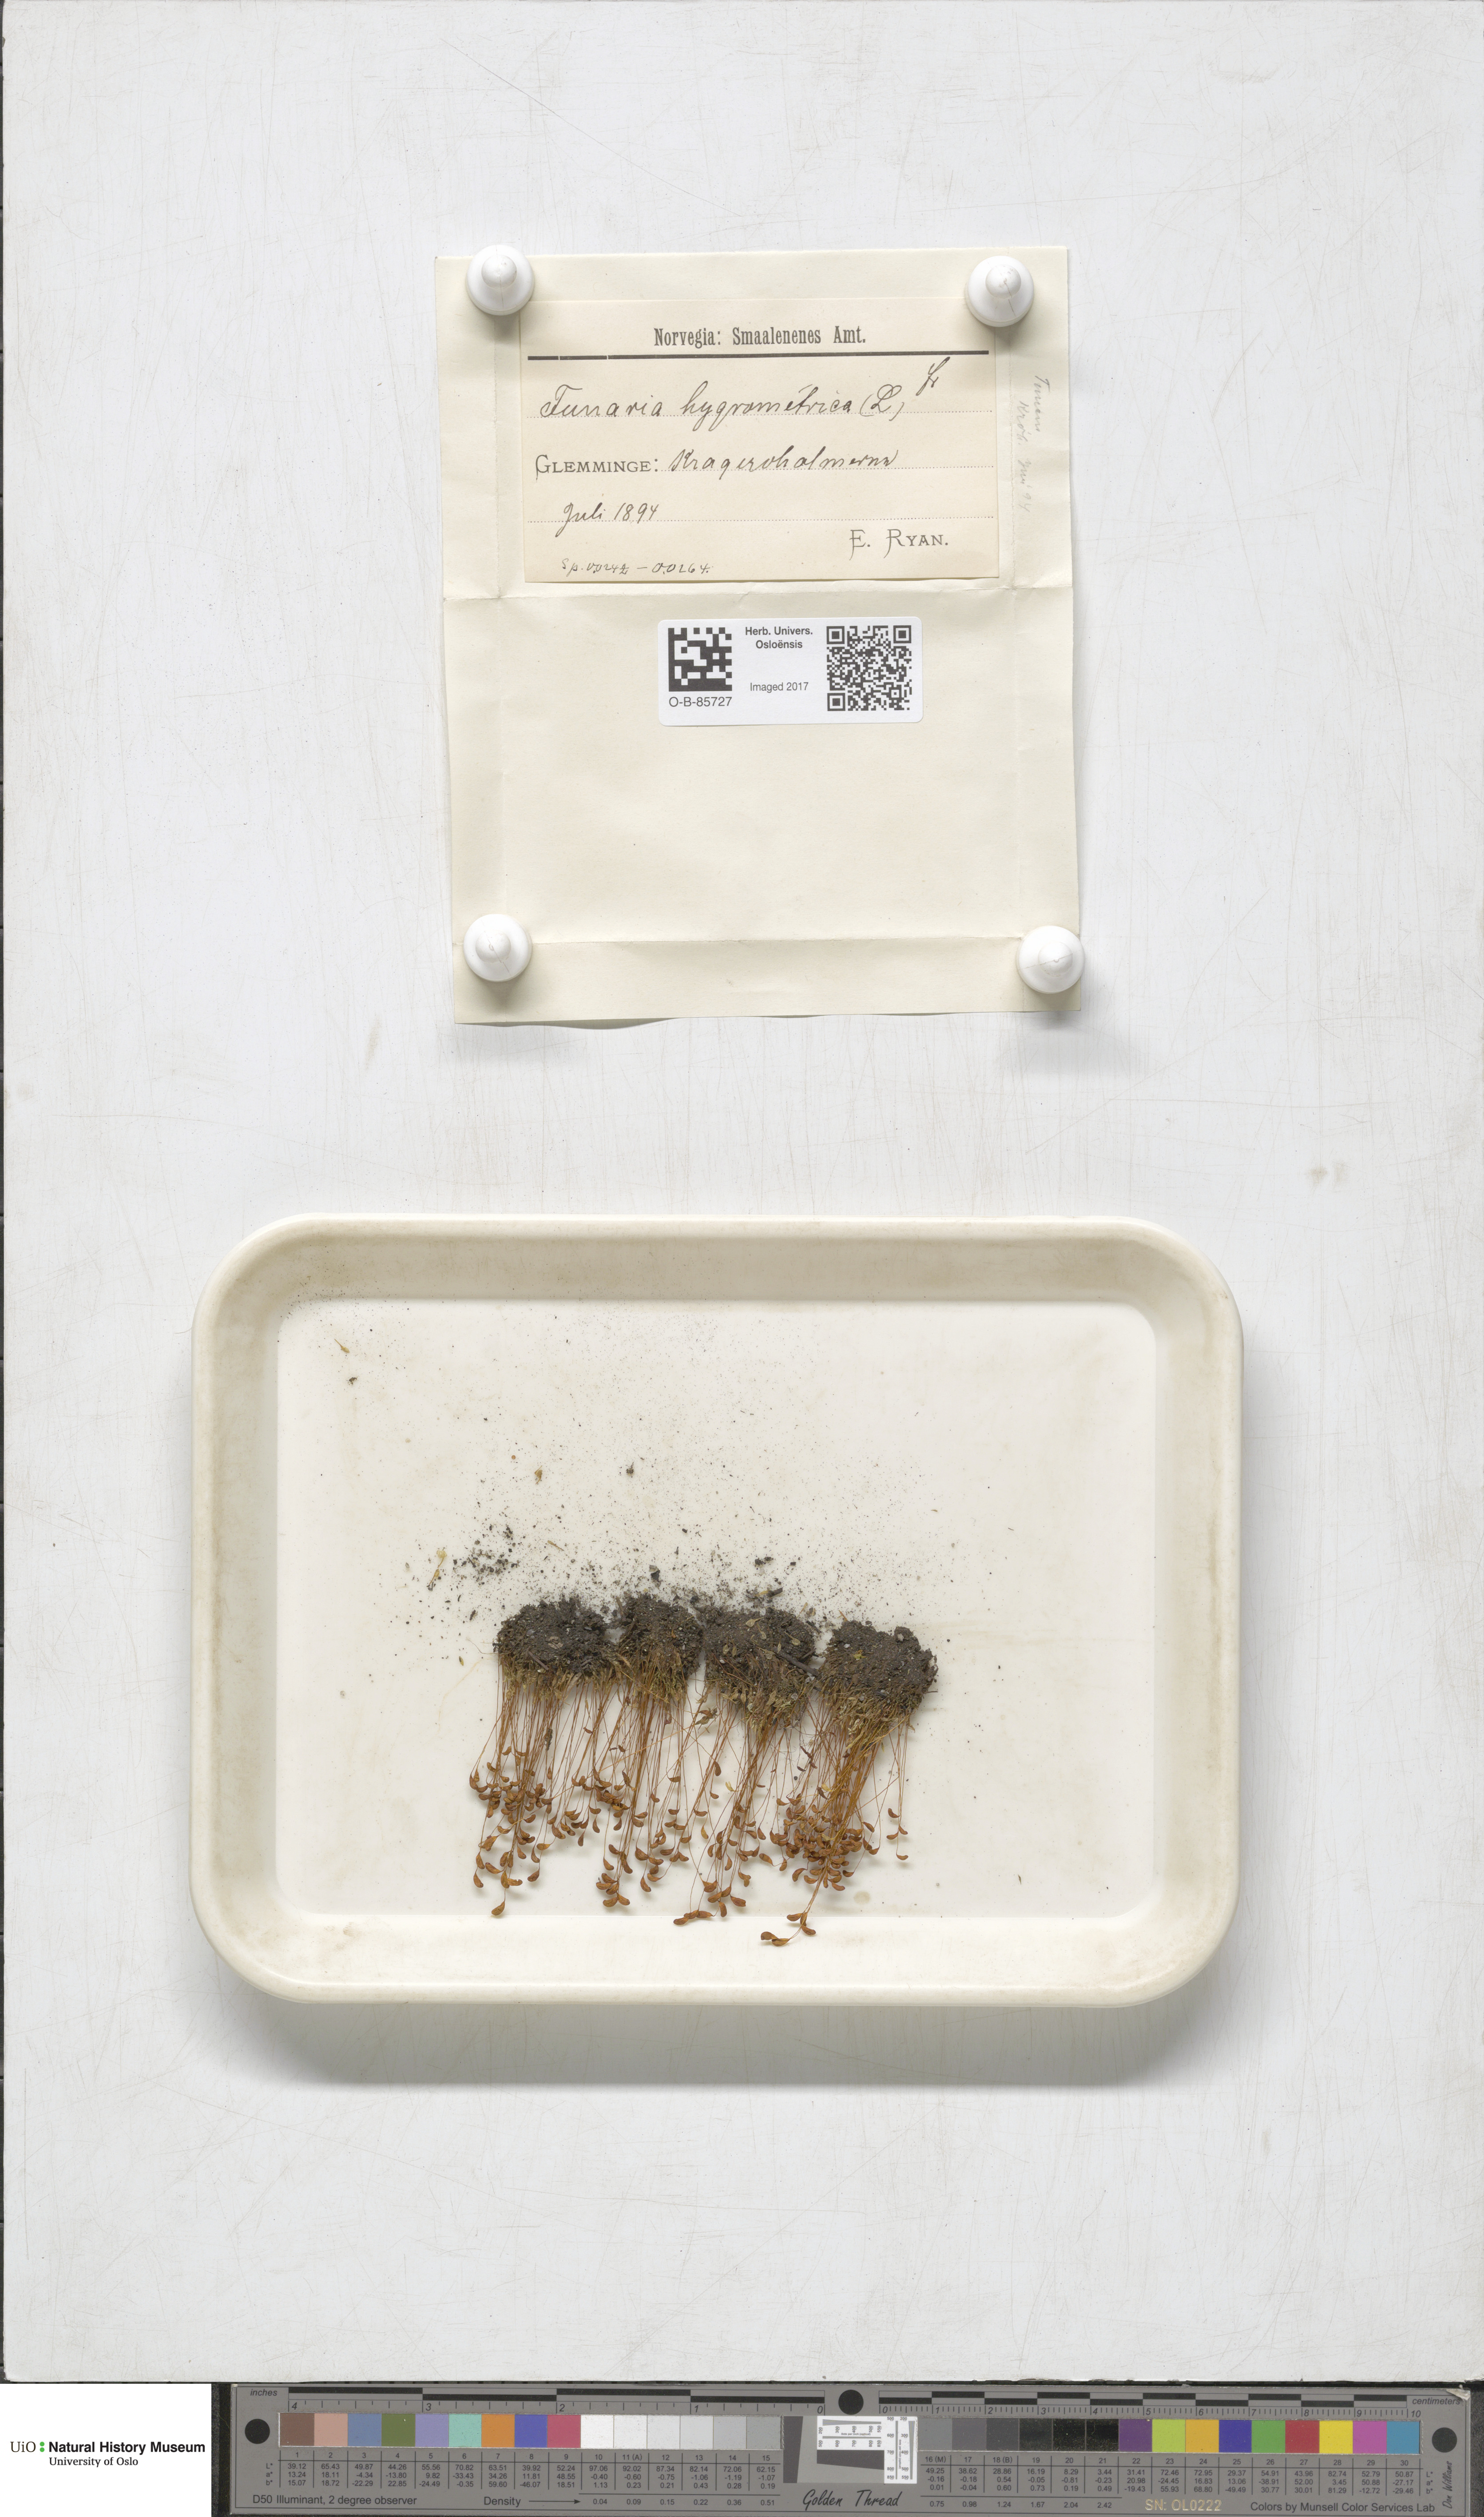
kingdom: Plantae
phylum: Bryophyta
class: Bryopsida
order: Funariales
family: Funariaceae
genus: Funaria
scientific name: Funaria hygrometrica
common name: Common cord moss
